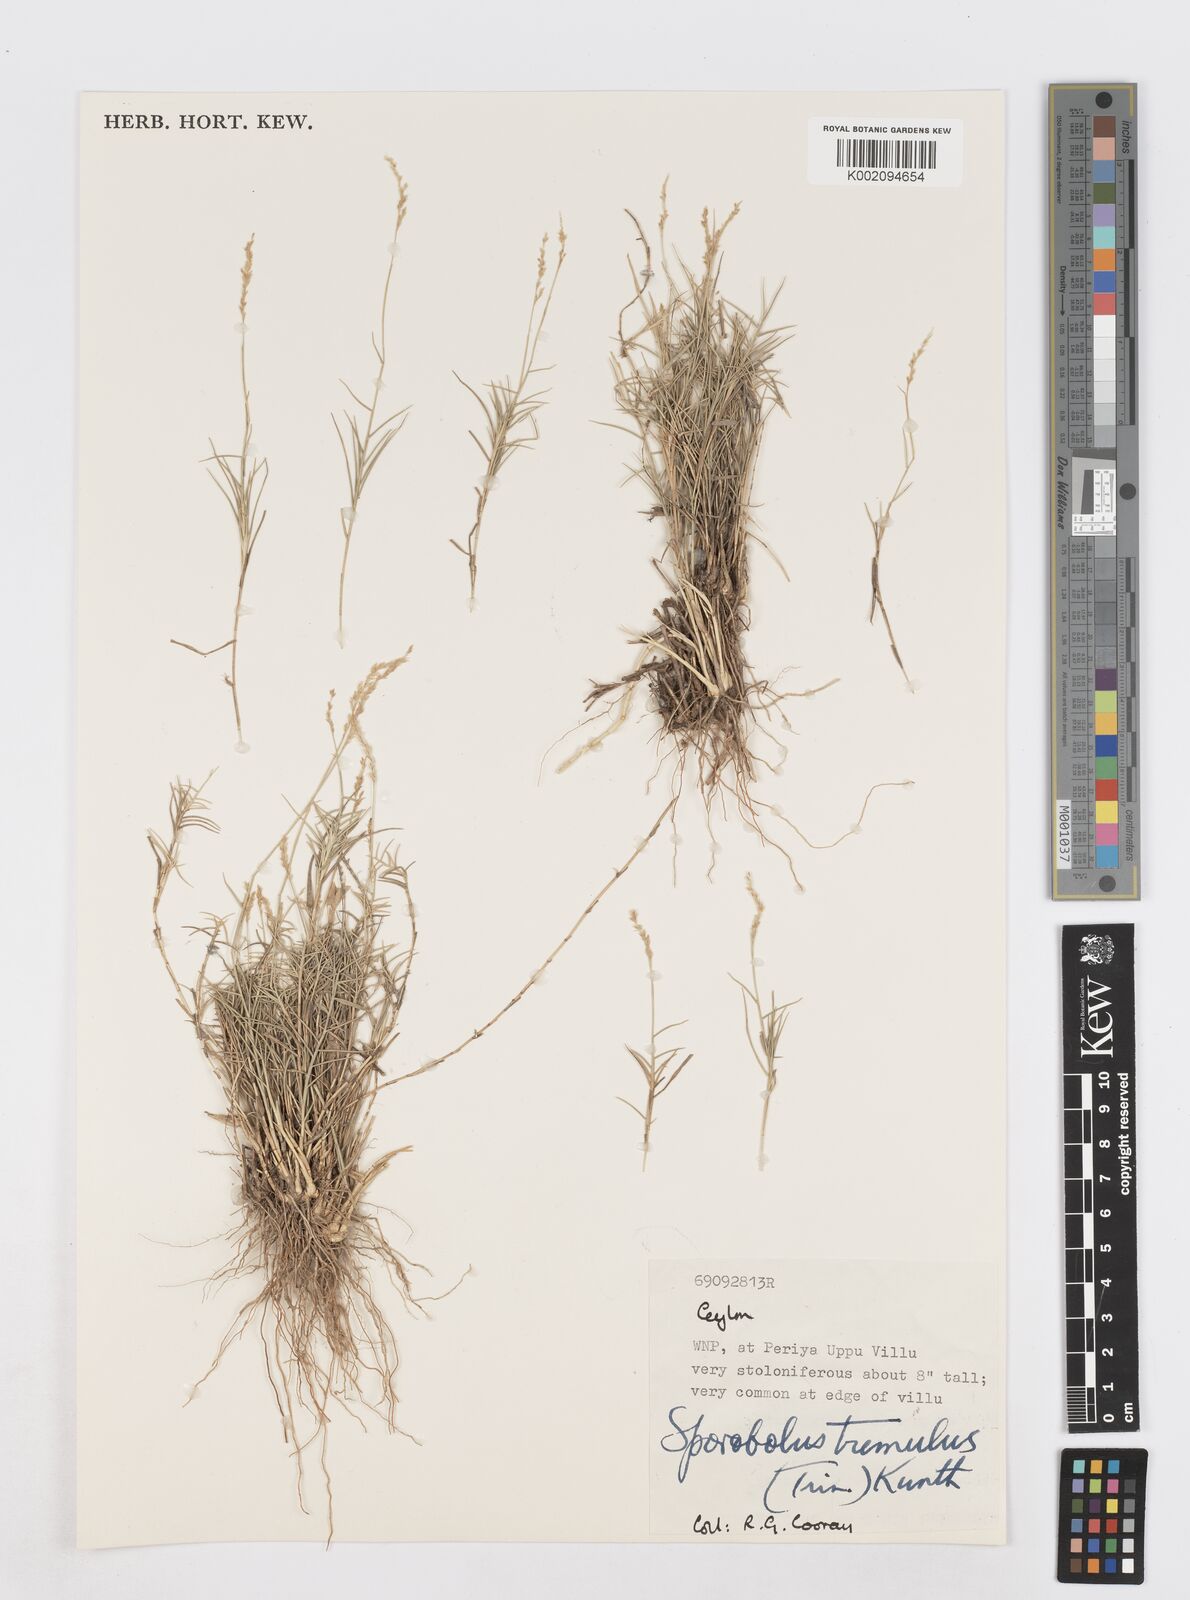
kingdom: Plantae
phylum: Tracheophyta
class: Liliopsida
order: Poales
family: Poaceae
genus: Sporobolus
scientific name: Sporobolus virginicus
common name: Beach dropseed
